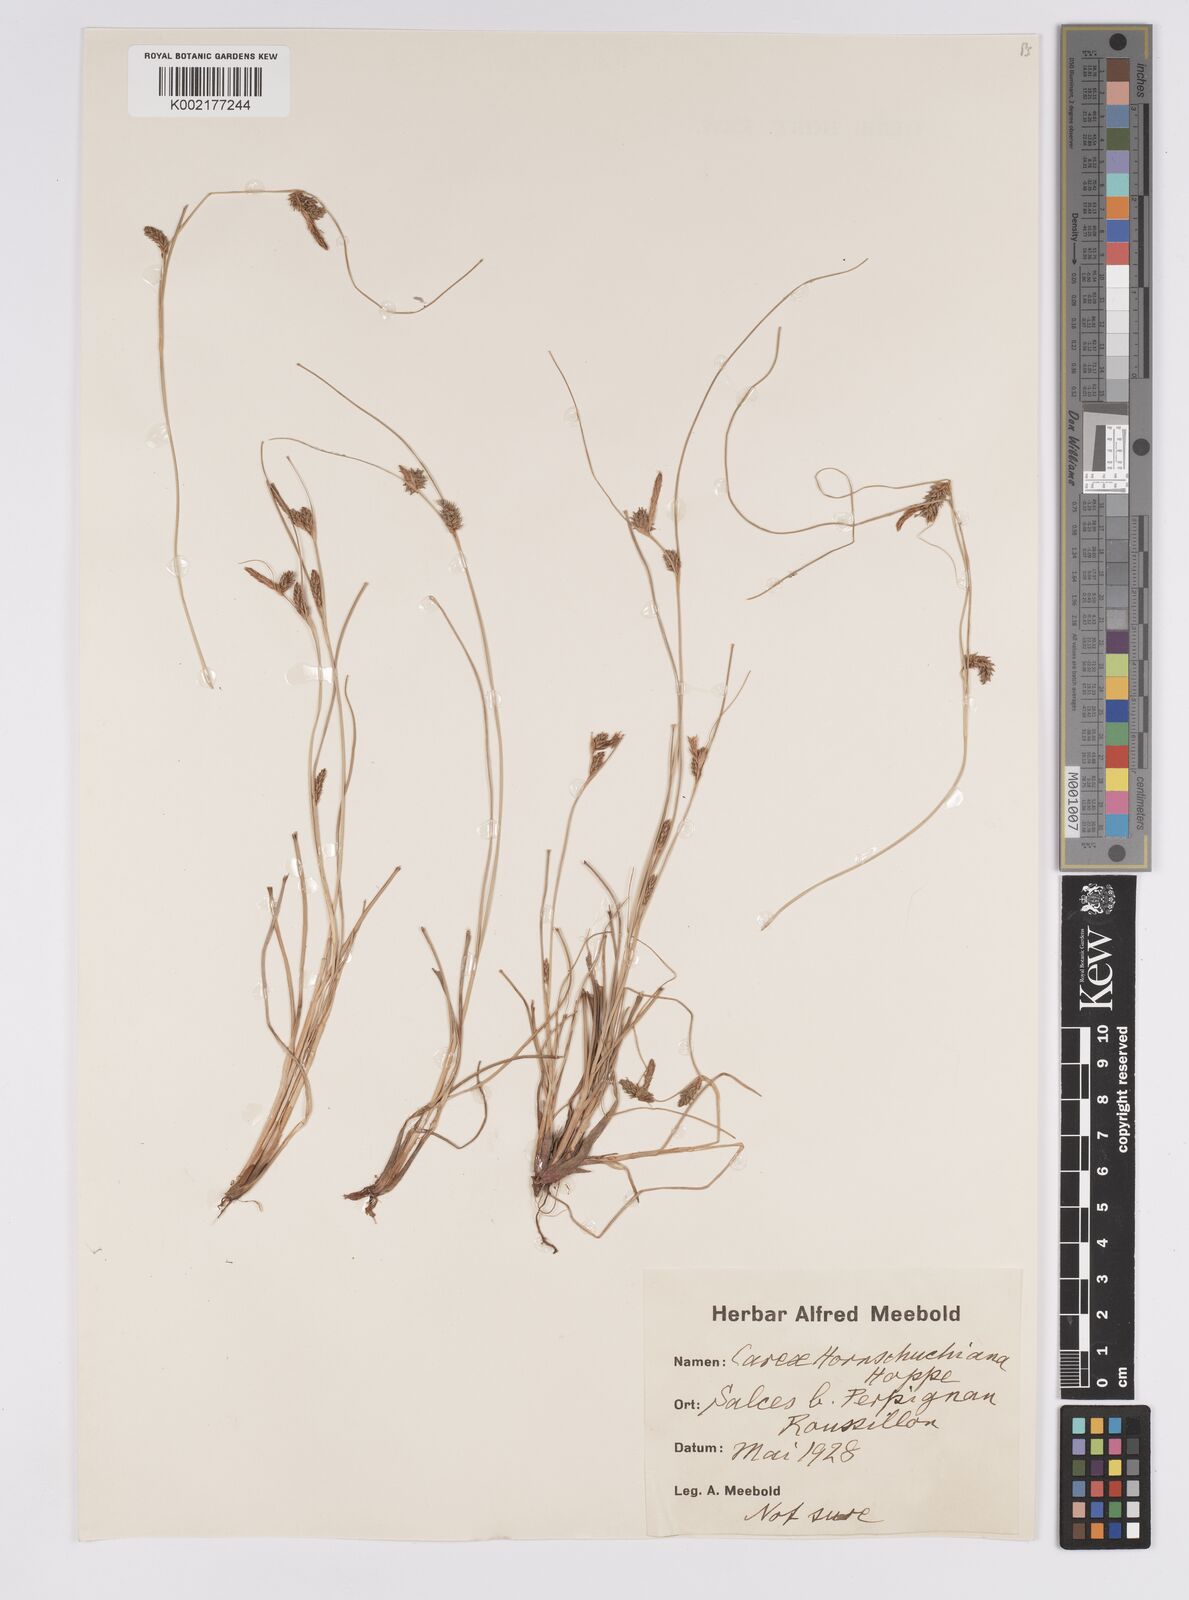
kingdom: Plantae
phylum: Tracheophyta
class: Liliopsida
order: Poales
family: Cyperaceae
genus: Carex
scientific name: Carex hostiana
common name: Tawny sedge
